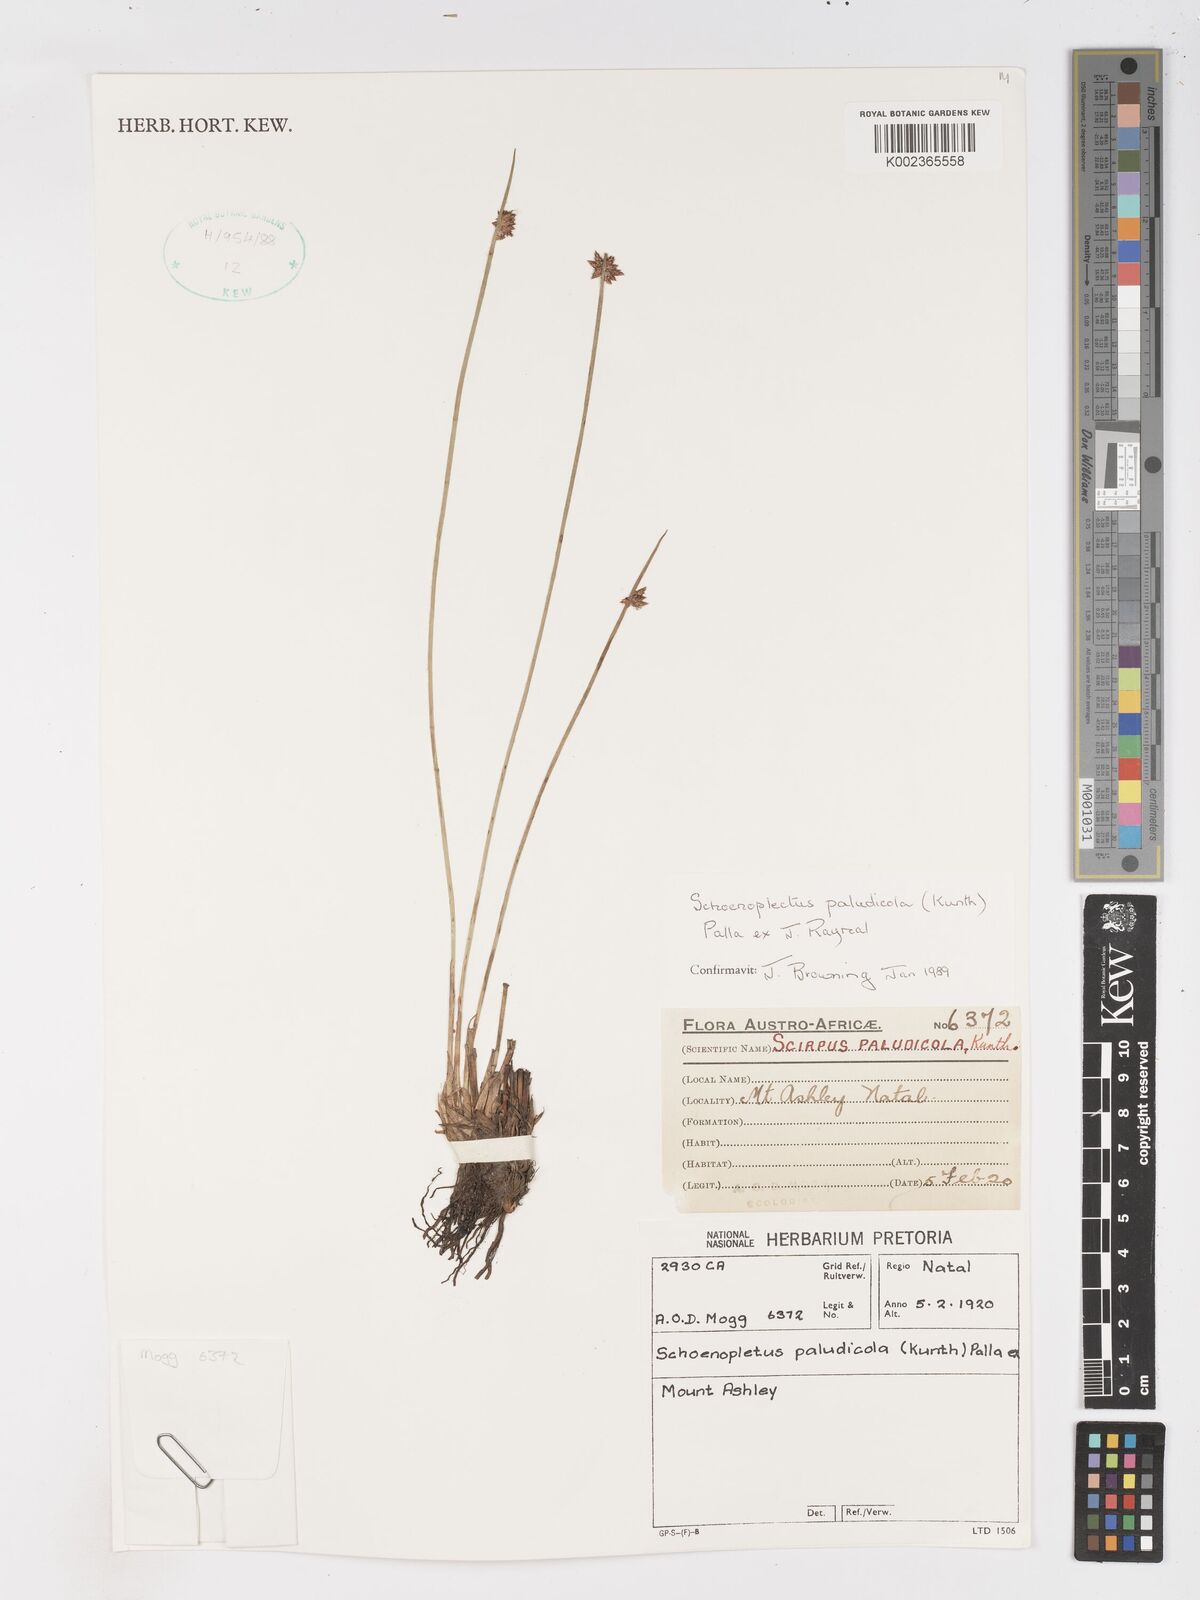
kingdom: Plantae
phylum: Tracheophyta
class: Liliopsida
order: Poales
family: Cyperaceae
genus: Schoenoplectiella
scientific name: Schoenoplectiella paludicola
